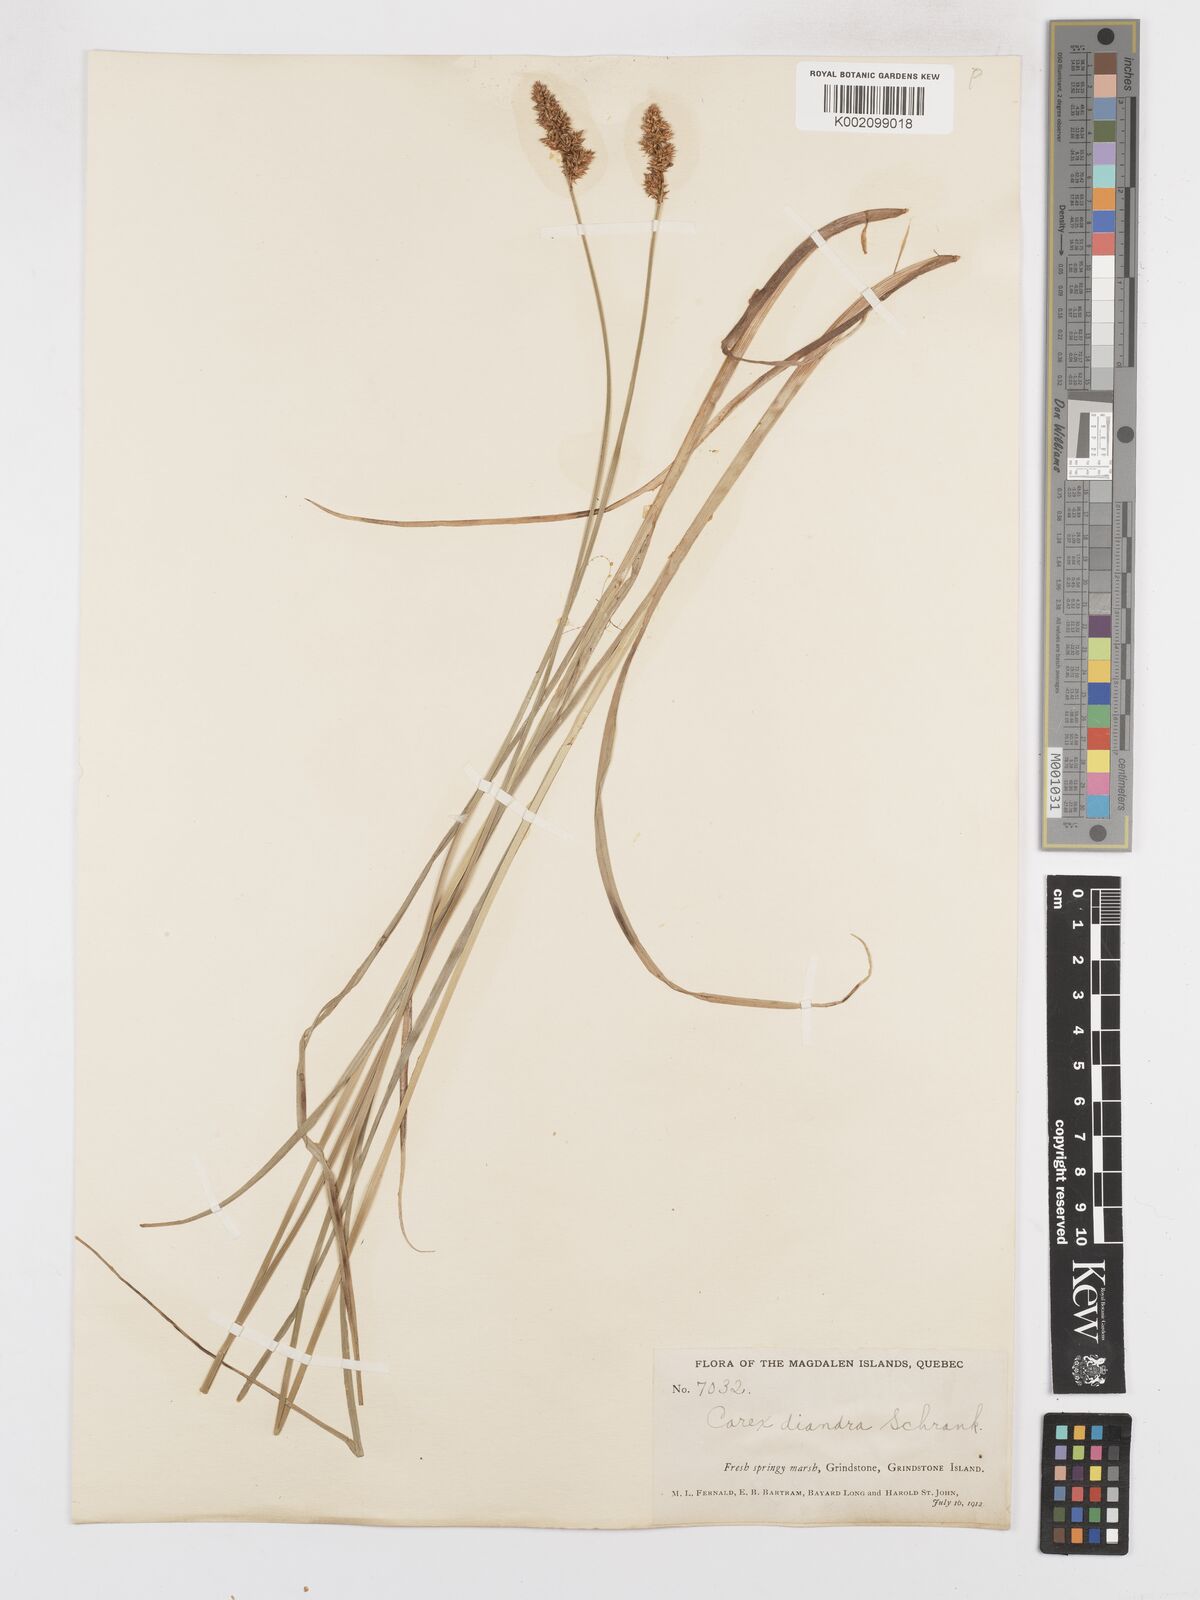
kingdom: Plantae
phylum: Tracheophyta
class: Liliopsida
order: Poales
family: Cyperaceae
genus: Carex
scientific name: Carex diandra
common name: Lesser tussock-sedge
